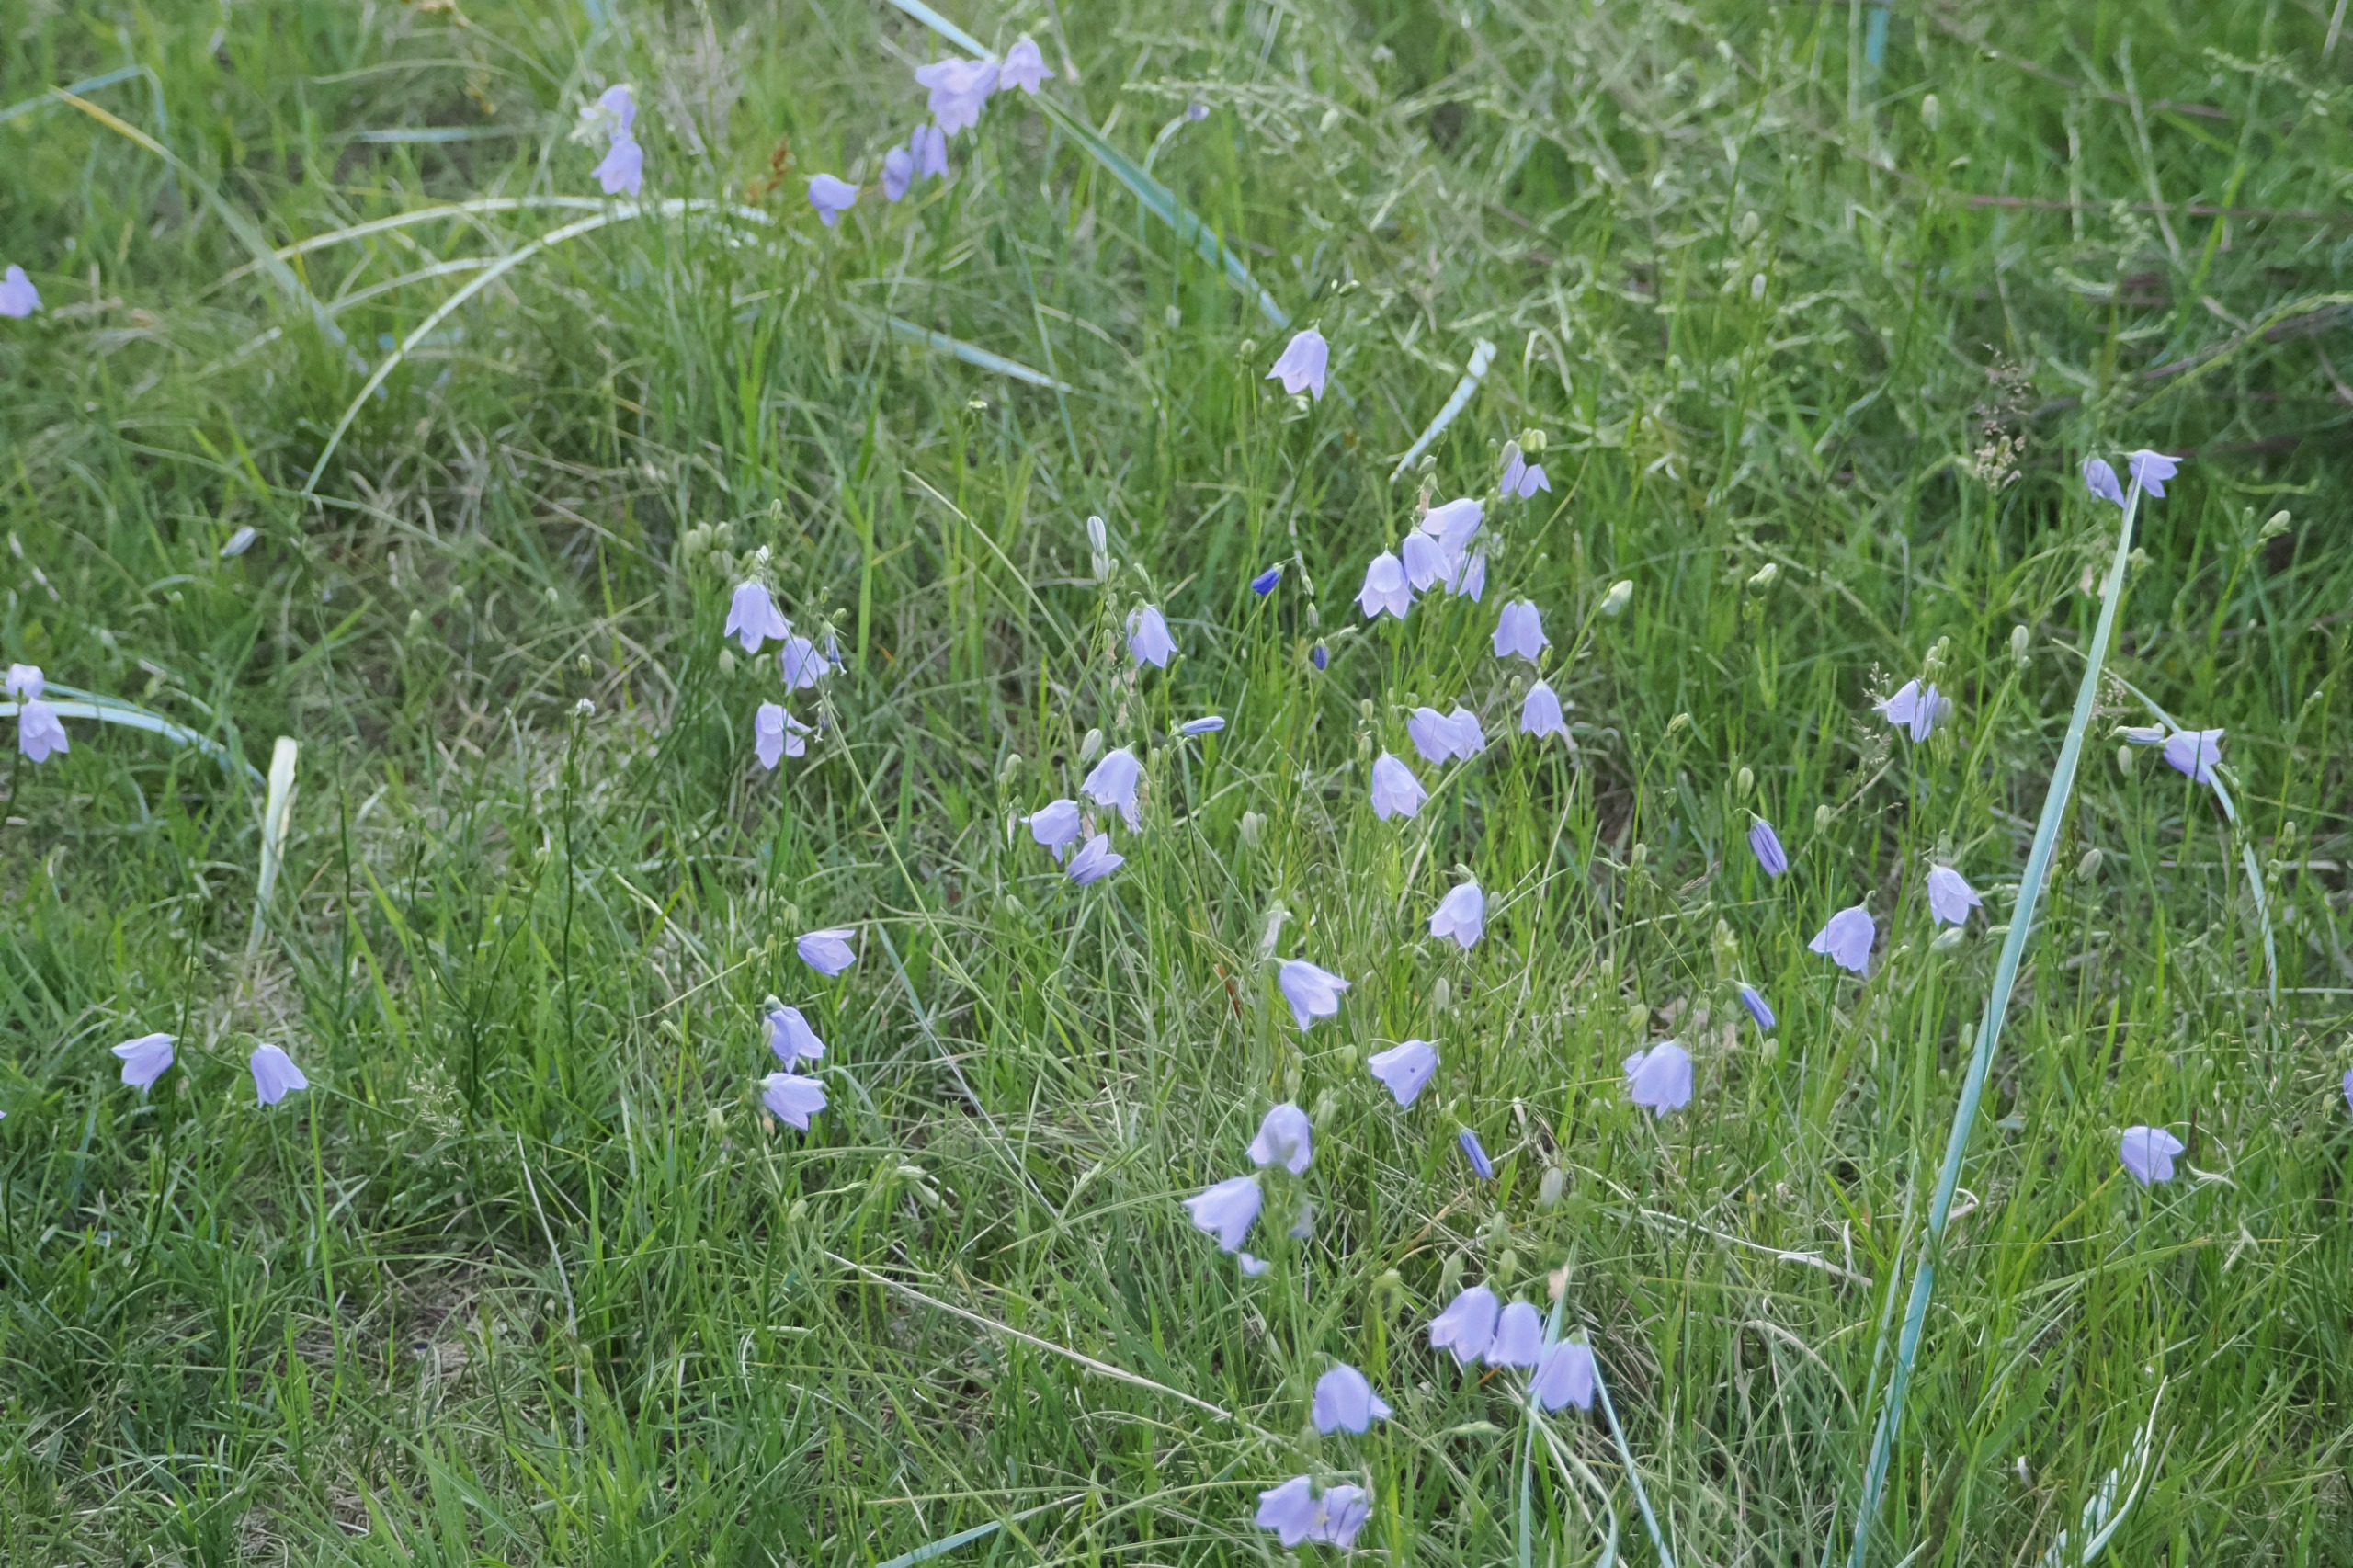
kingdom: Plantae
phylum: Tracheophyta
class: Magnoliopsida
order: Asterales
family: Campanulaceae
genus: Campanula
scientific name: Campanula rotundifolia
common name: Liden klokke
